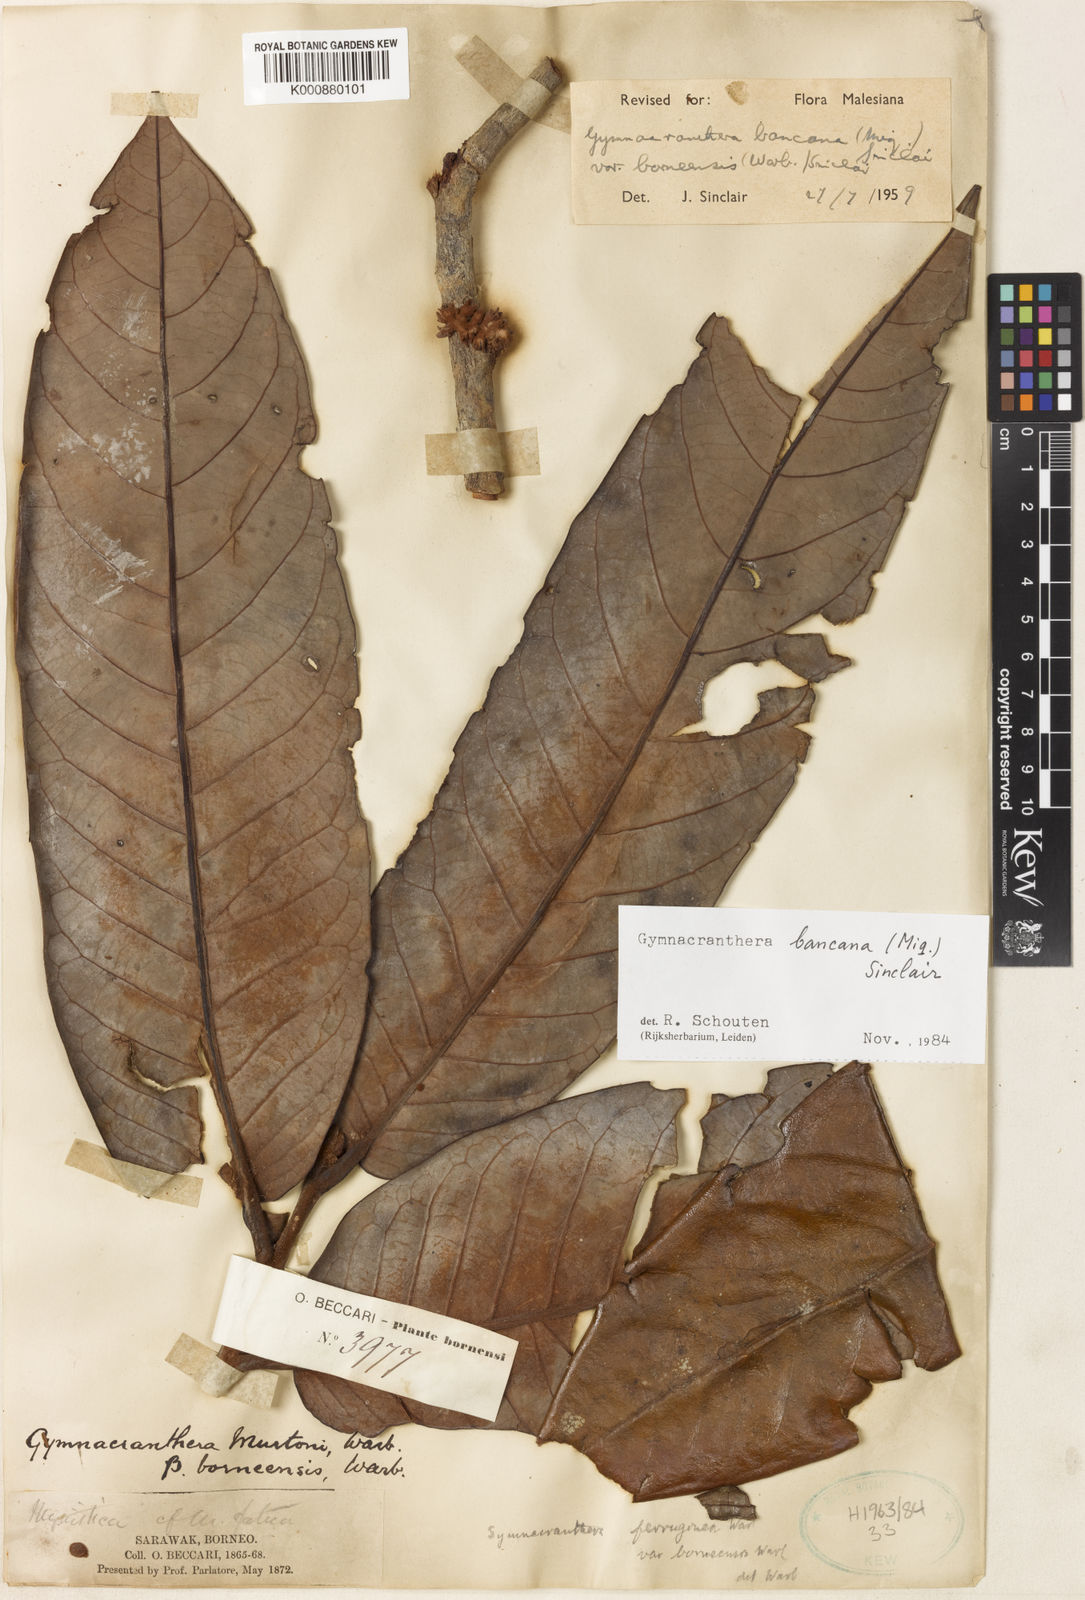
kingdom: Plantae
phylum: Tracheophyta
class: Magnoliopsida
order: Magnoliales
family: Myristicaceae
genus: Gymnacranthera
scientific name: Gymnacranthera bancana
